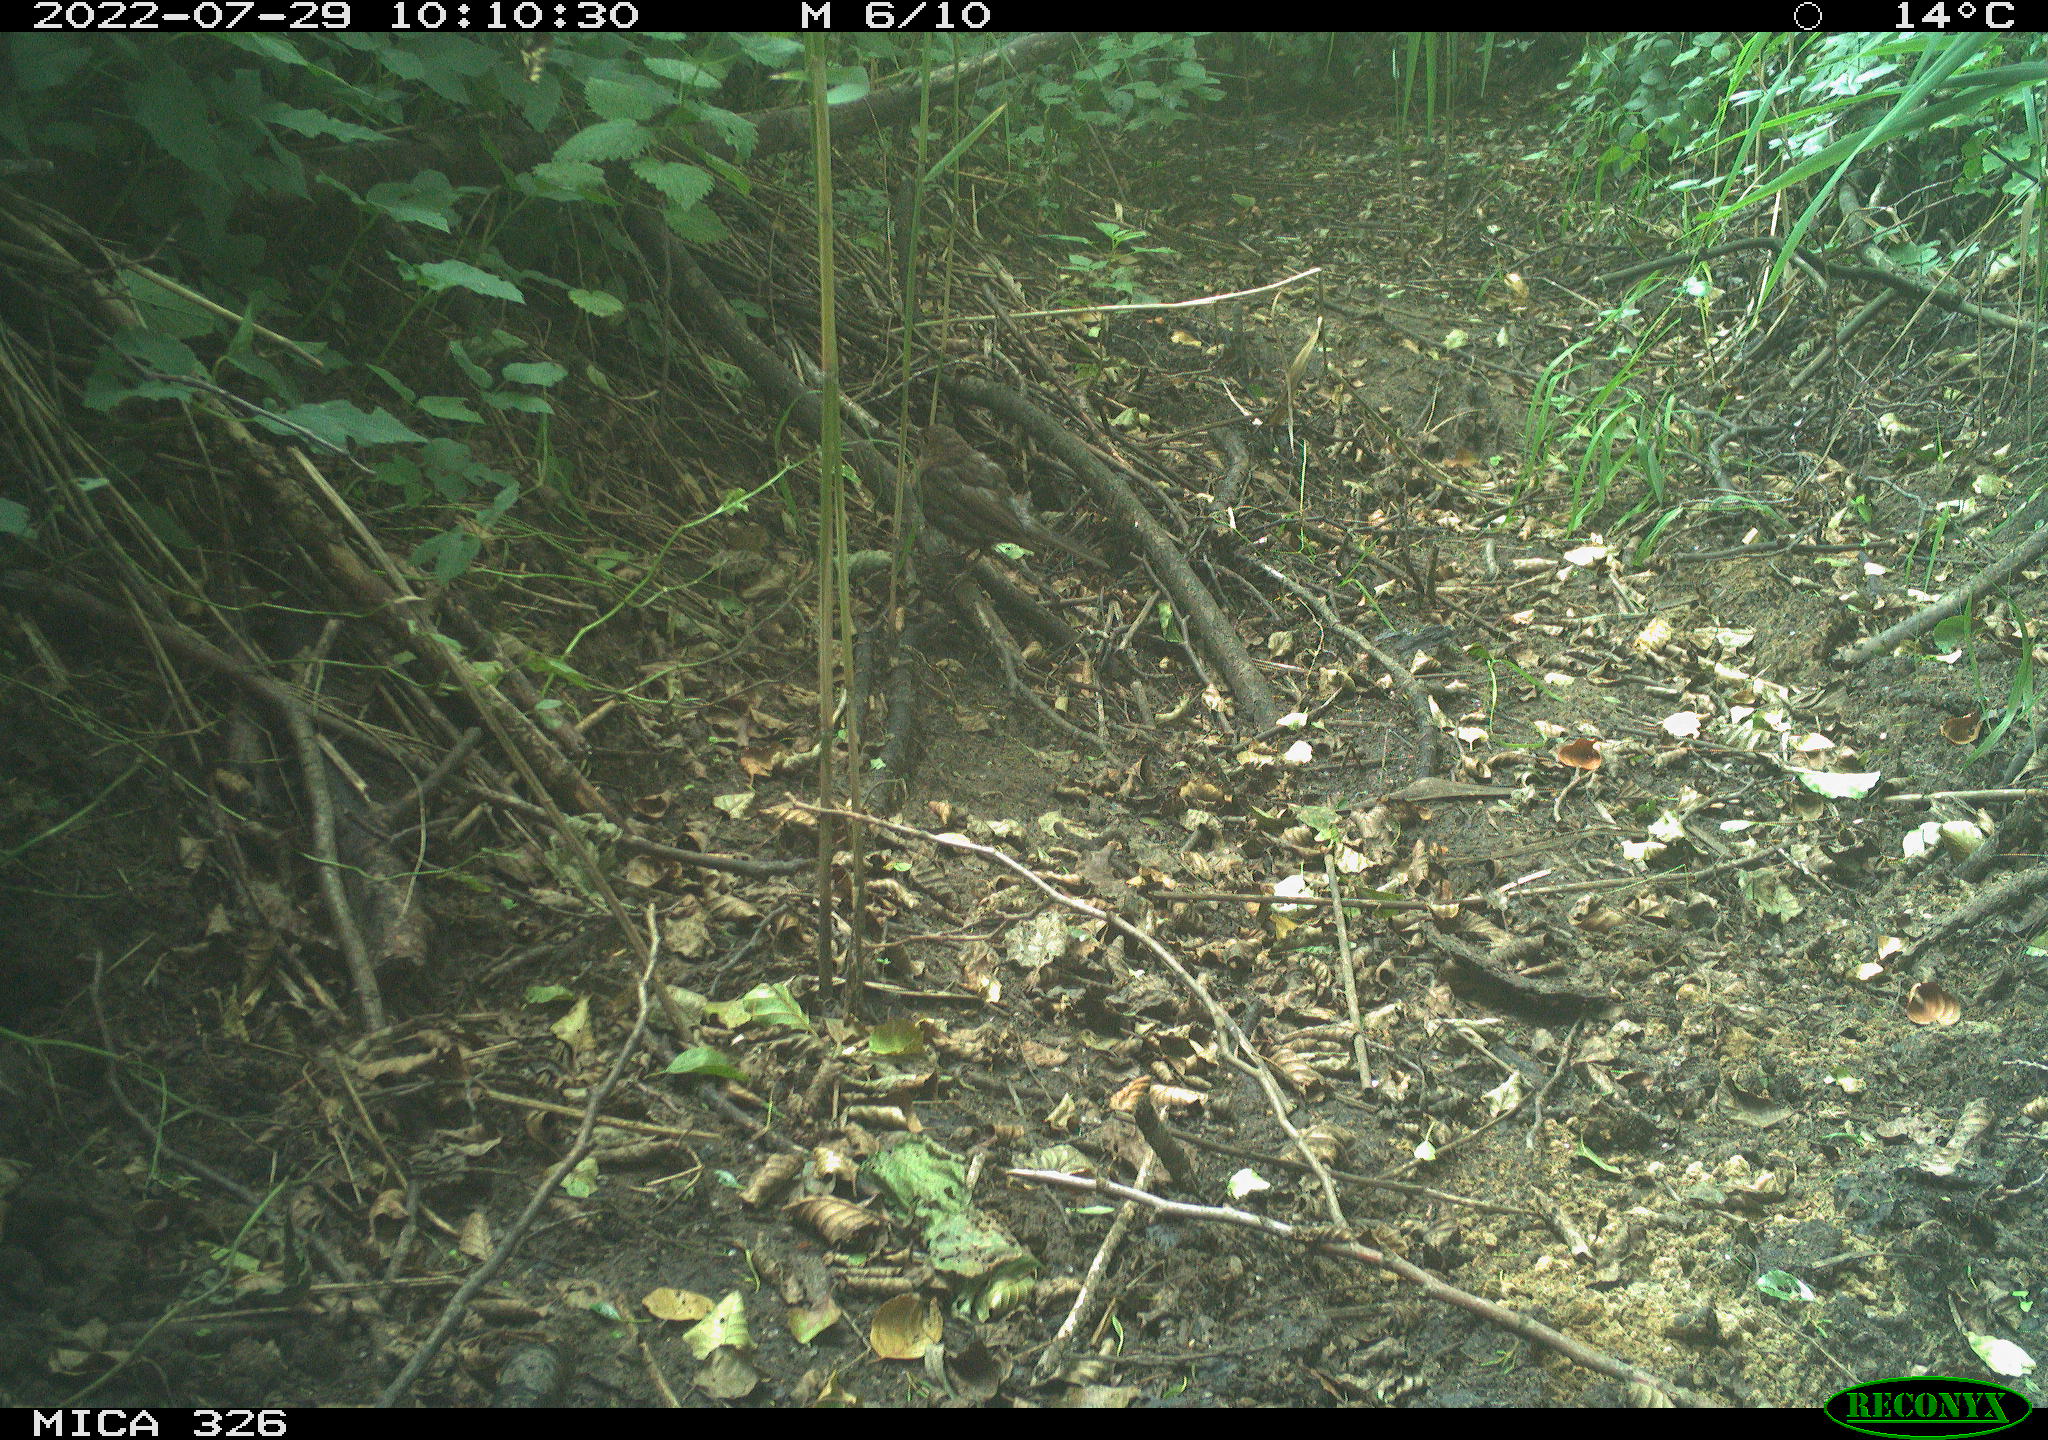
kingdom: Animalia
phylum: Chordata
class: Aves
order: Passeriformes
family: Prunellidae
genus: Prunella
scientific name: Prunella modularis
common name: Dunnock
